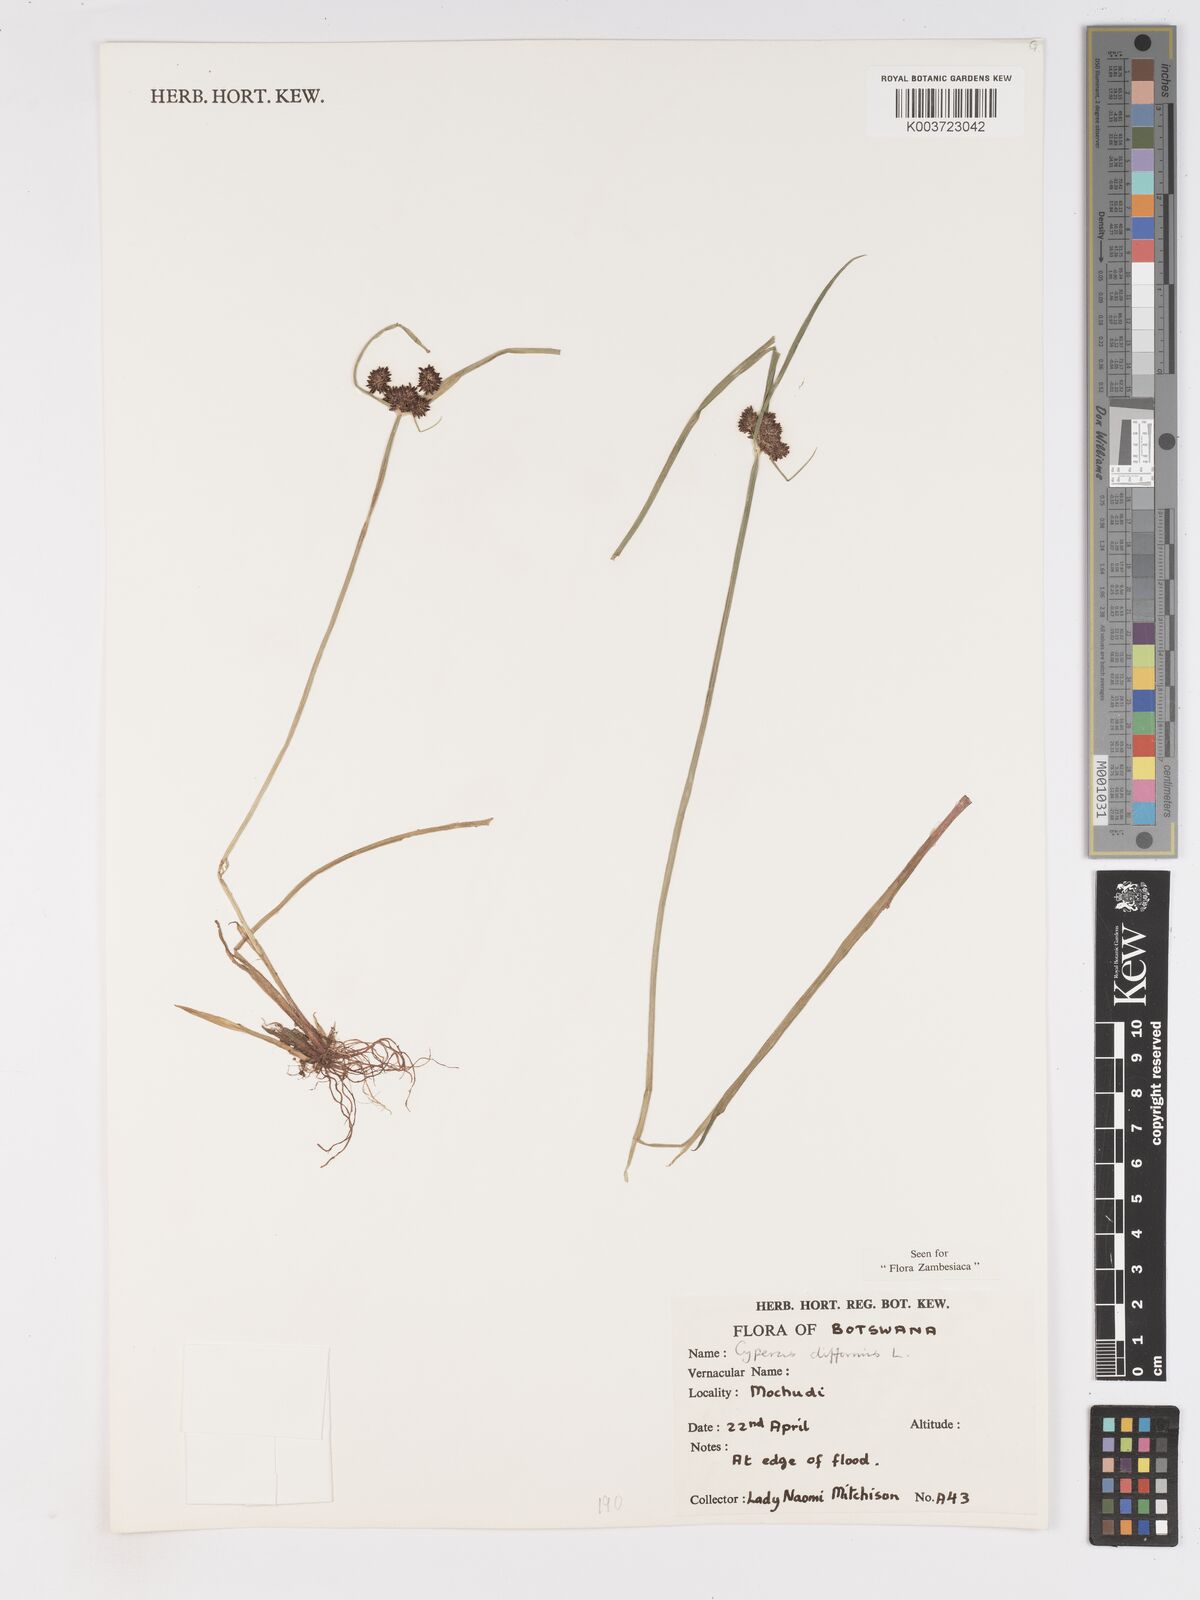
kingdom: Plantae
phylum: Tracheophyta
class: Liliopsida
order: Poales
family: Cyperaceae
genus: Cyperus
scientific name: Cyperus difformis
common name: Variable flatsedge
